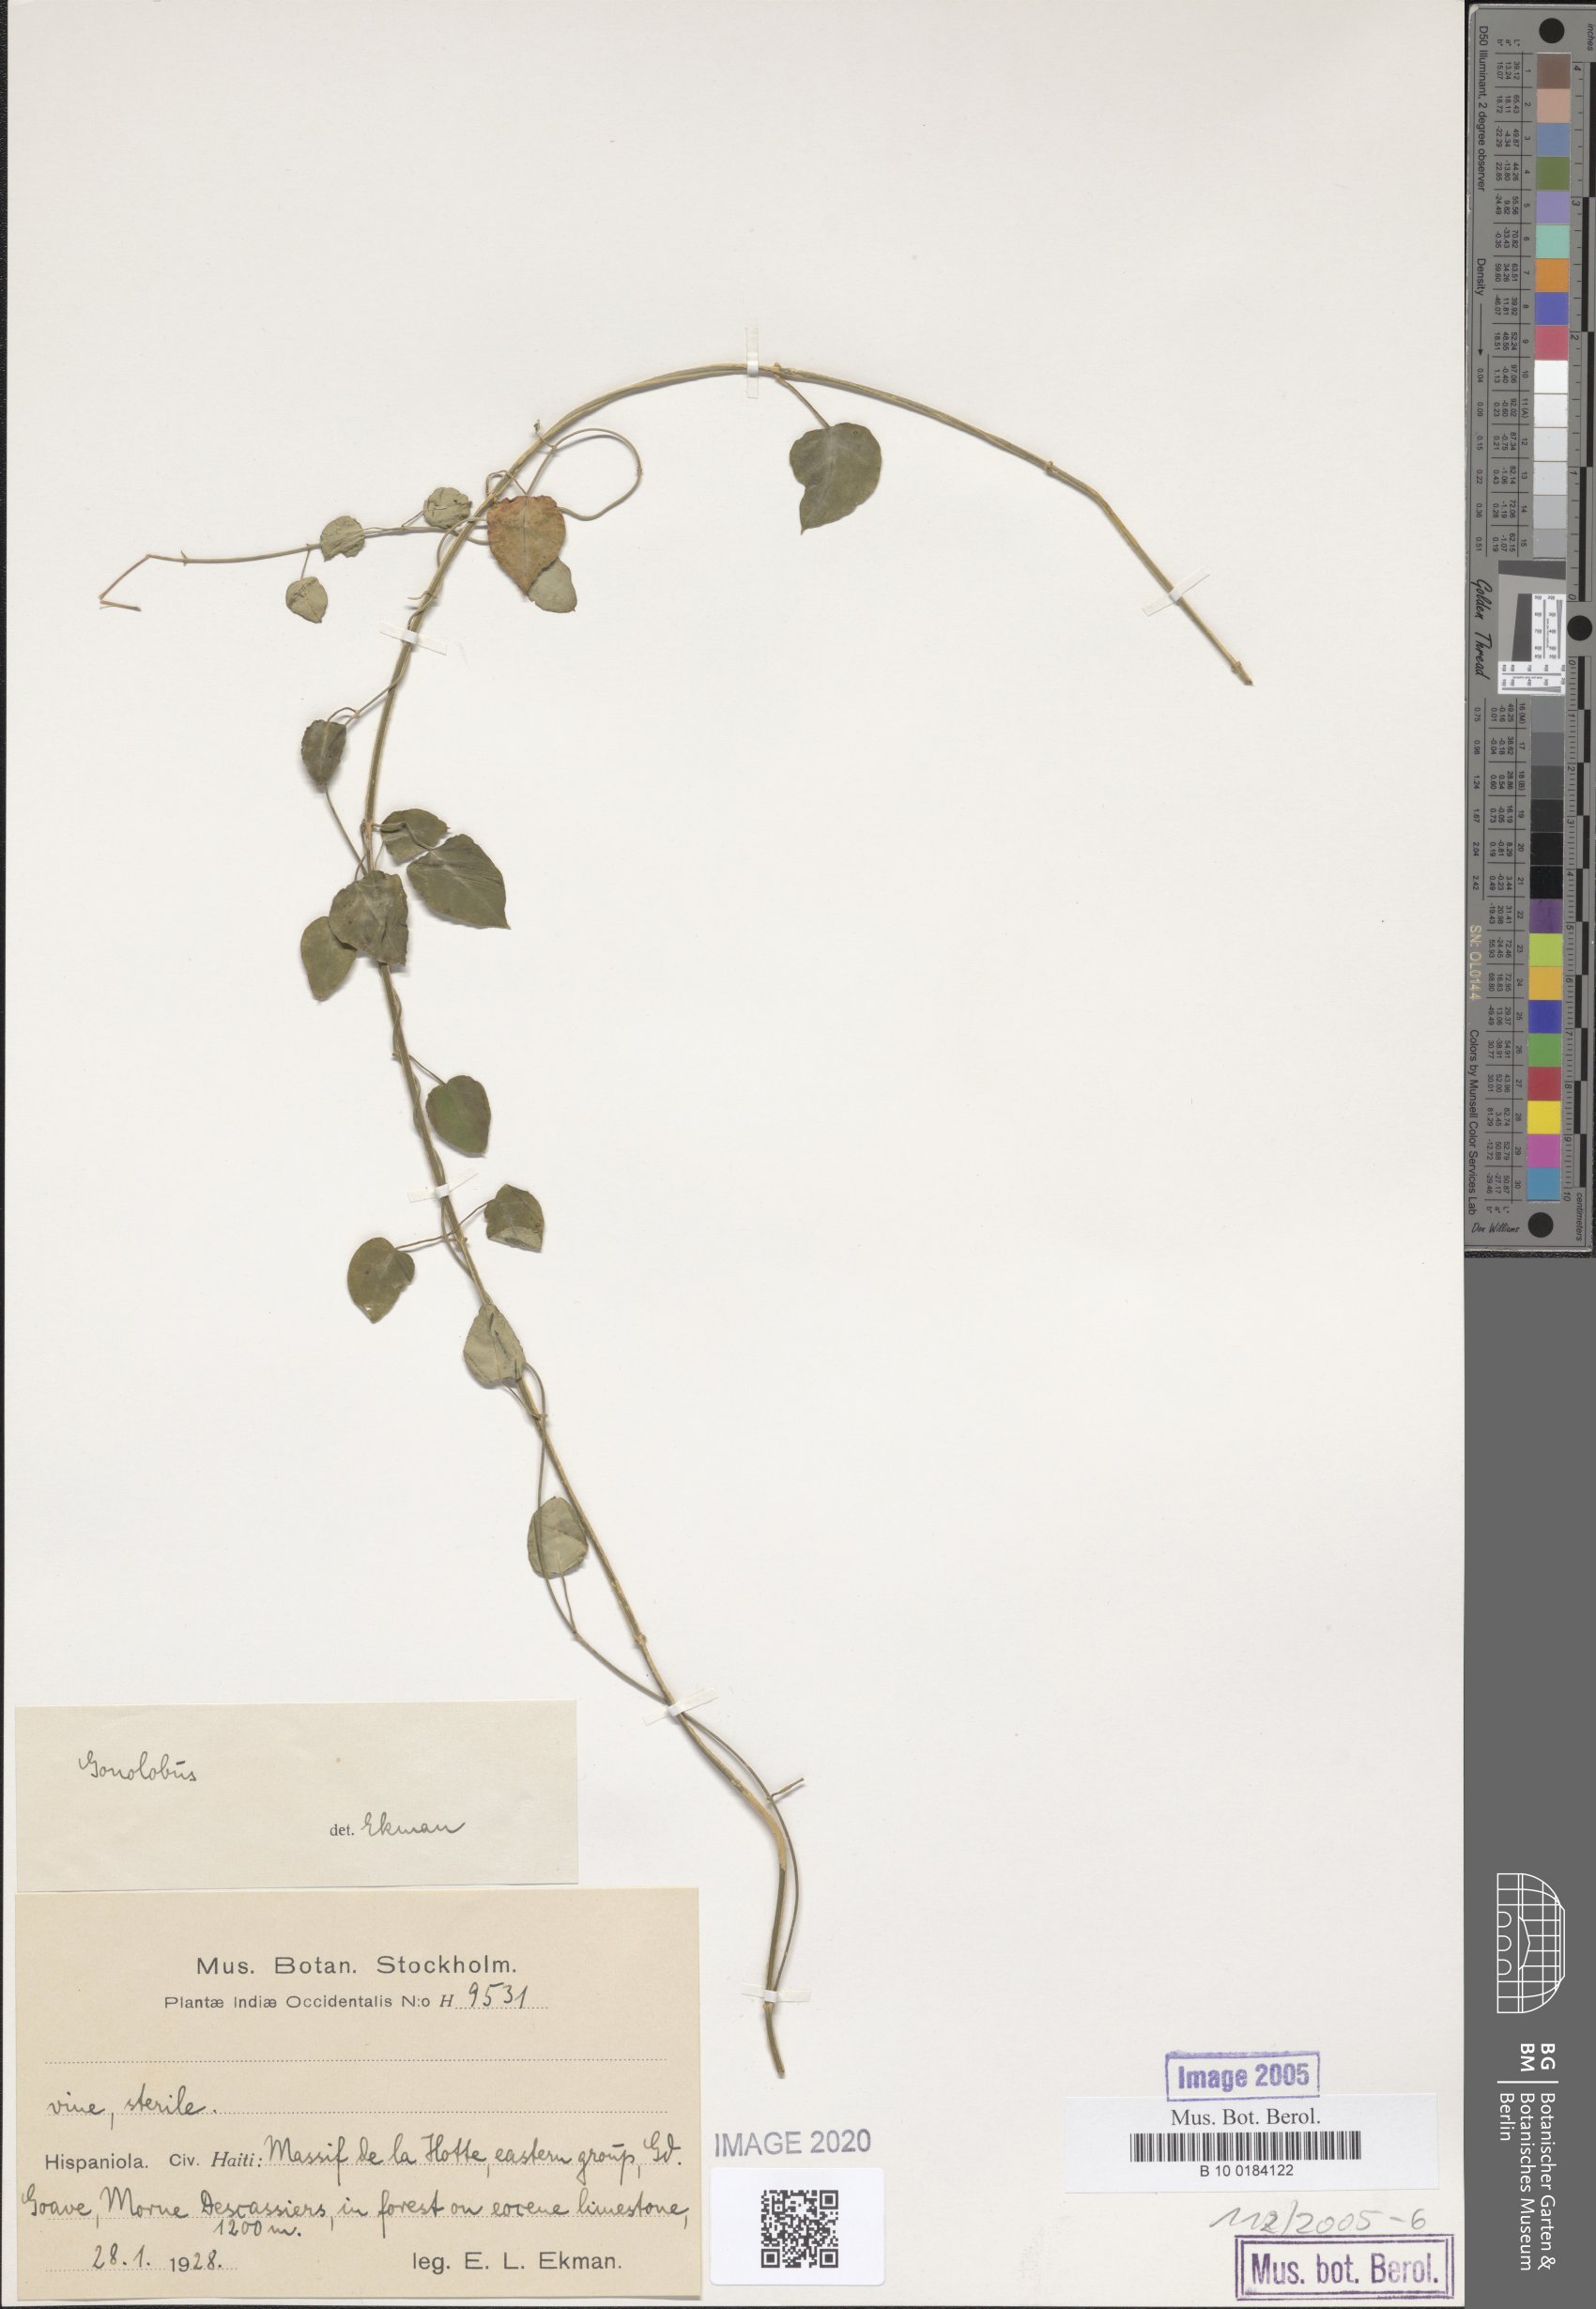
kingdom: Plantae
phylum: Tracheophyta
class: Magnoliopsida
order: Gentianales
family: Apocynaceae
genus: Gonolobus
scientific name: Gonolobus
